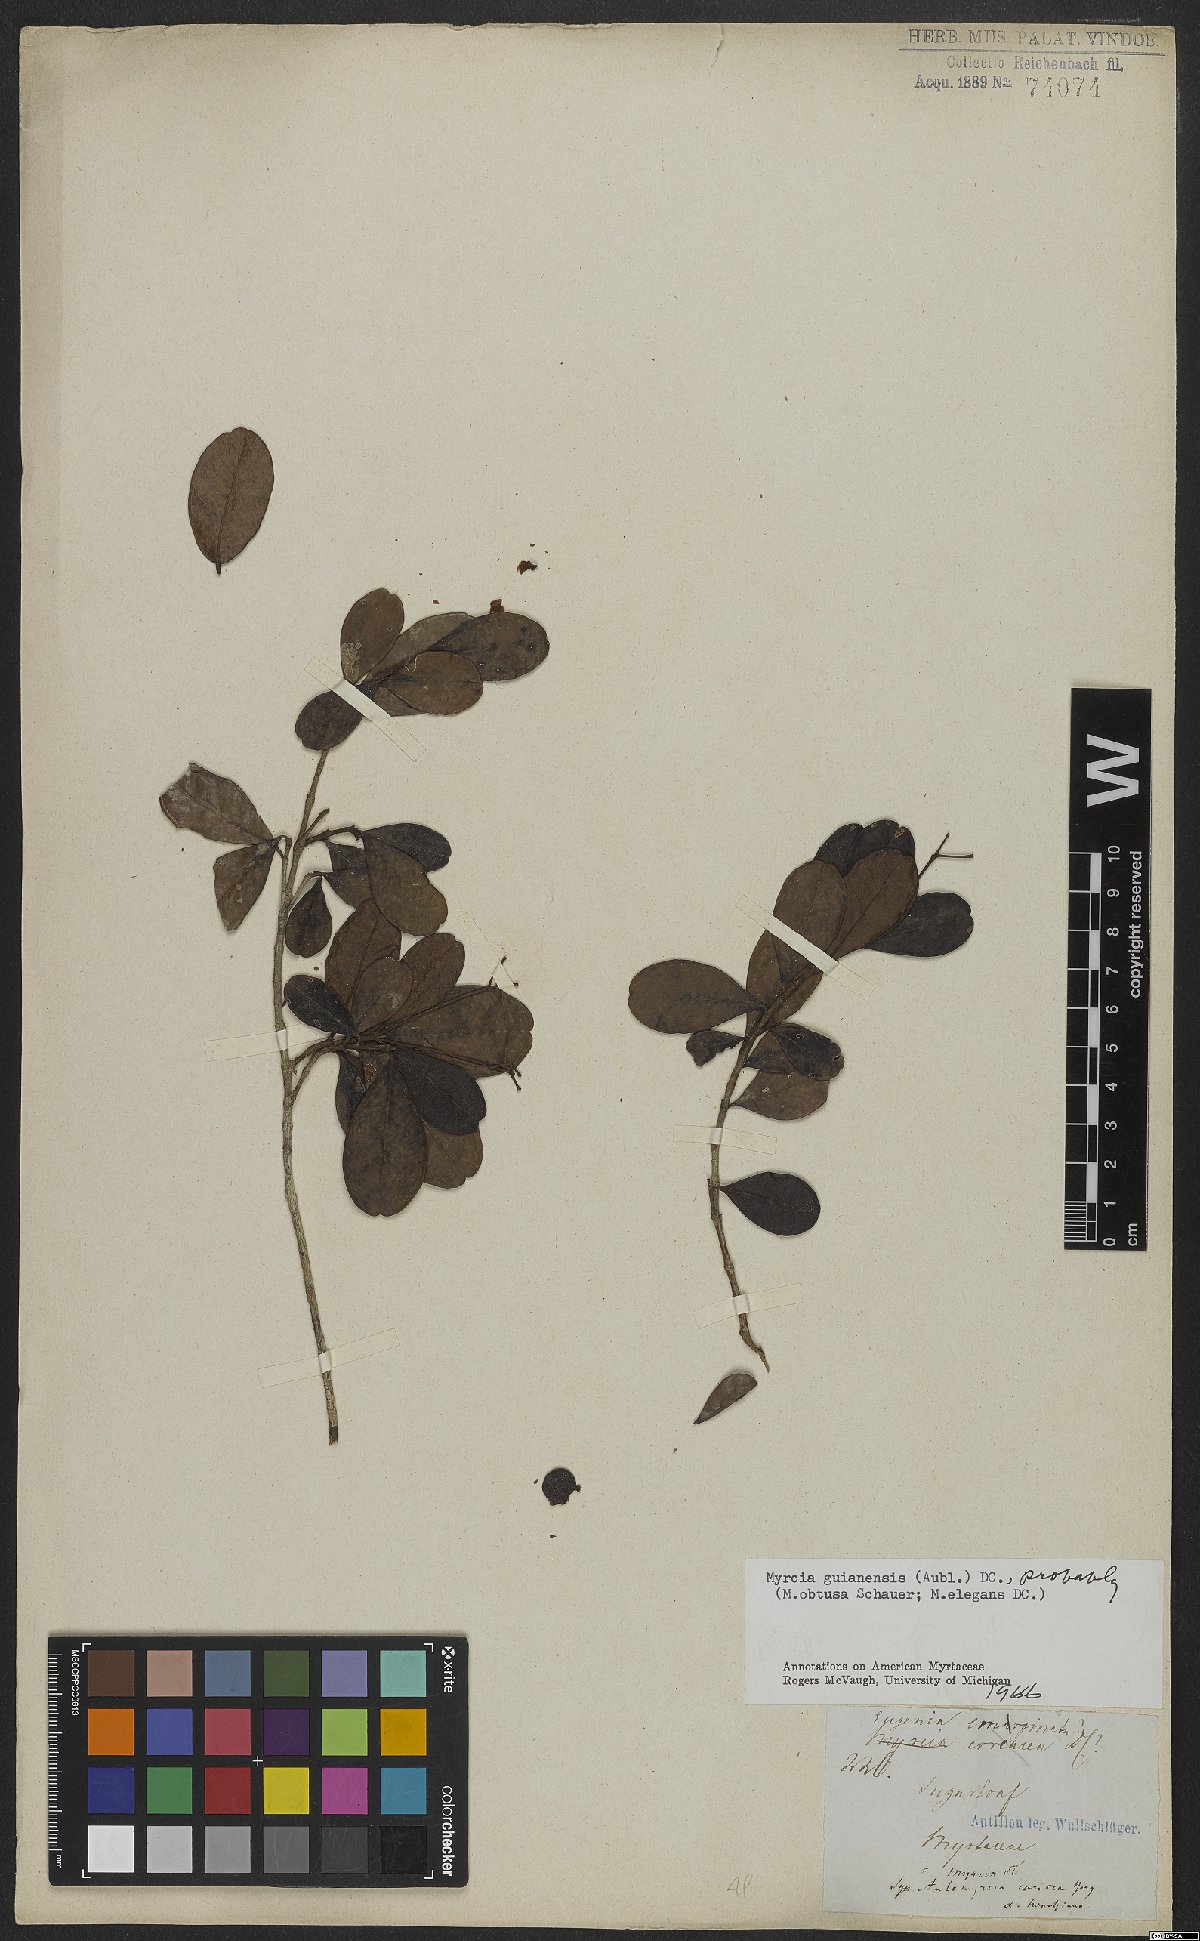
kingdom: Plantae
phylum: Tracheophyta
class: Magnoliopsida
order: Myrtales
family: Myrtaceae
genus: Myrcia
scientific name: Myrcia guianensis
